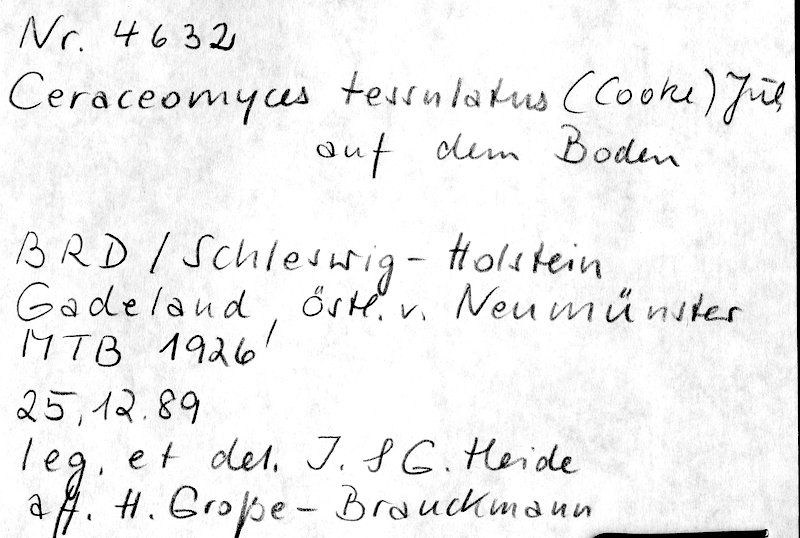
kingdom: Fungi
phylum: Basidiomycota
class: Agaricomycetes
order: Amylocorticiales
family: Amylocorticiaceae
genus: Ceraceomyces
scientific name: Ceraceomyces tessulatus
